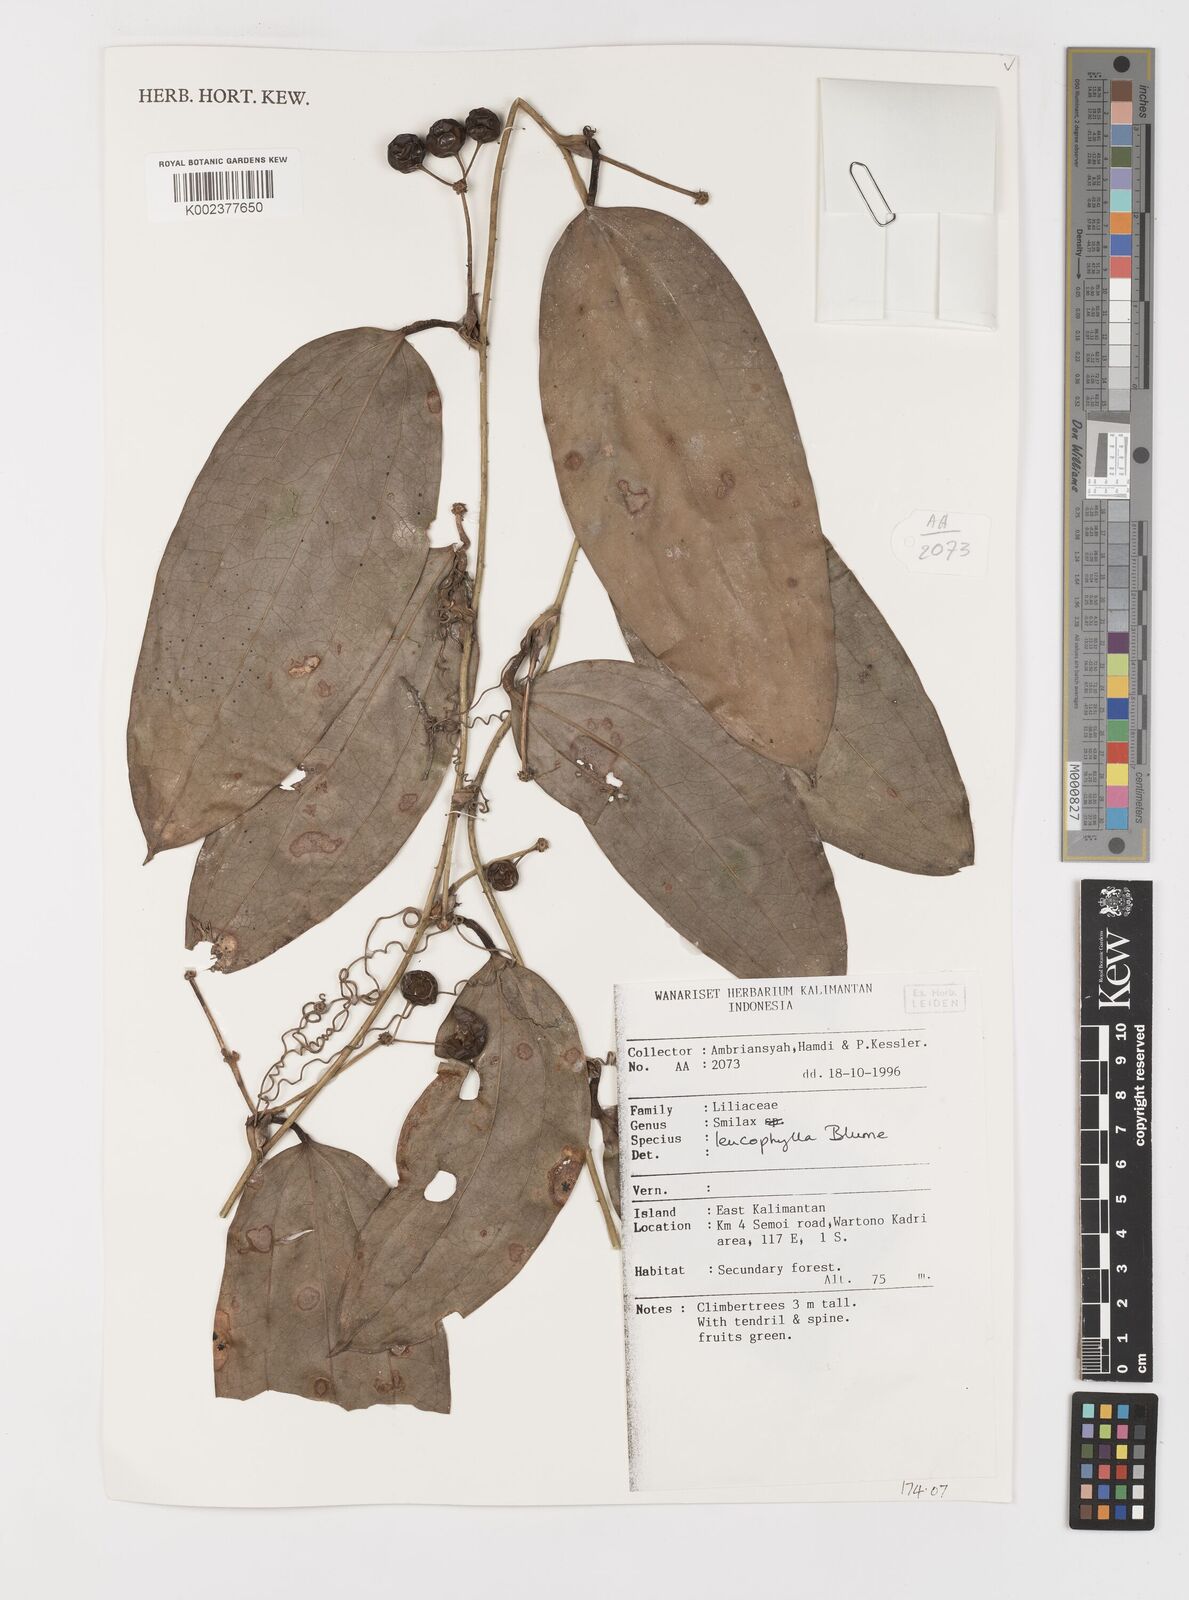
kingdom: Plantae
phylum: Tracheophyta
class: Liliopsida
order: Liliales
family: Smilacaceae
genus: Smilax
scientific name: Smilax leucophylla
